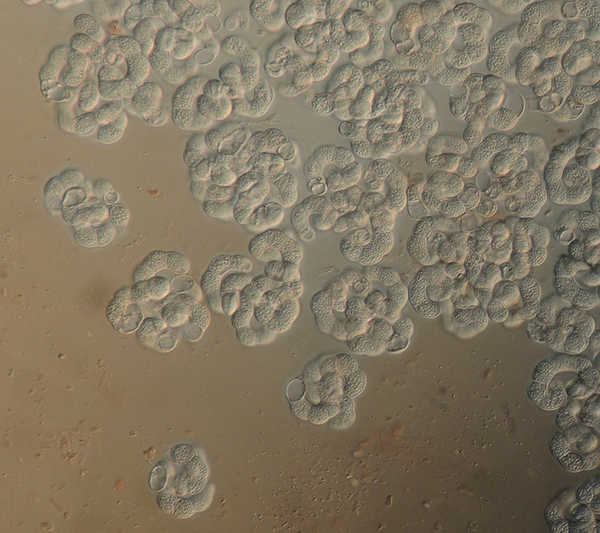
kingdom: Fungi
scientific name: Fungi
